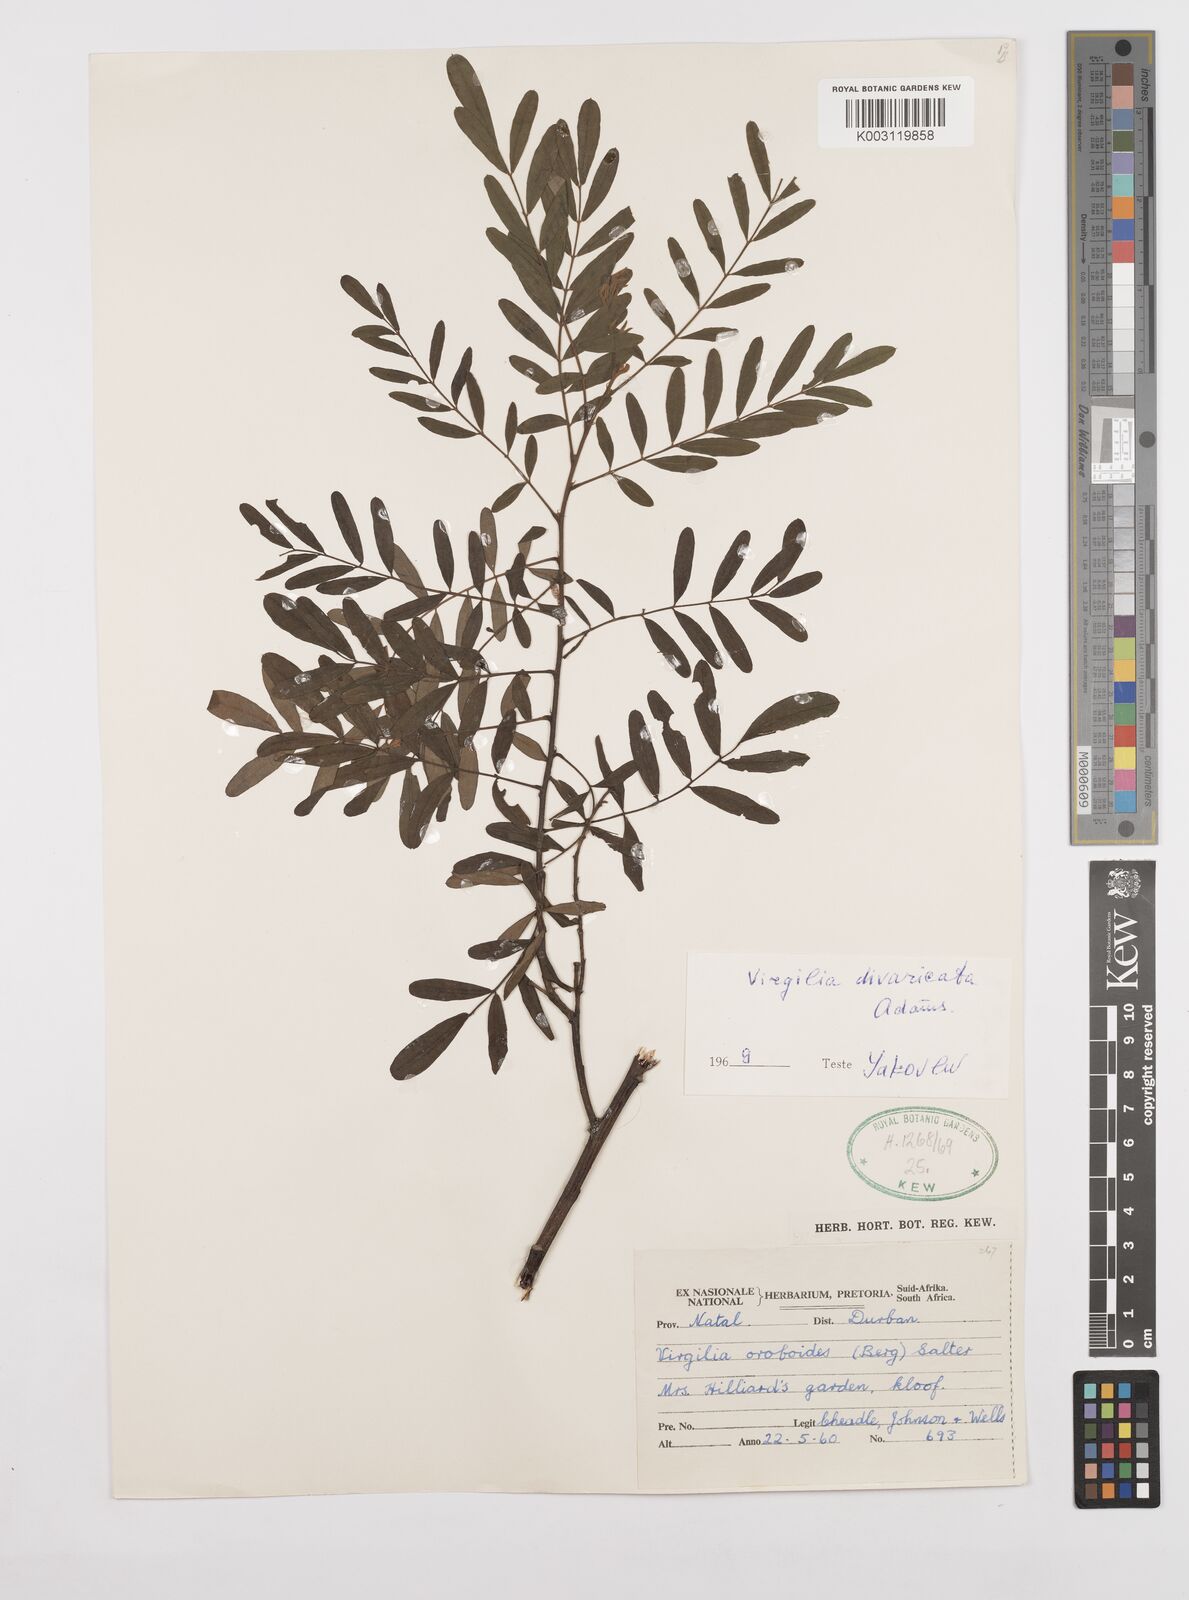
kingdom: Plantae
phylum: Tracheophyta
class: Magnoliopsida
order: Fabales
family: Fabaceae
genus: Virgilia
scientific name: Virgilia divaricata
